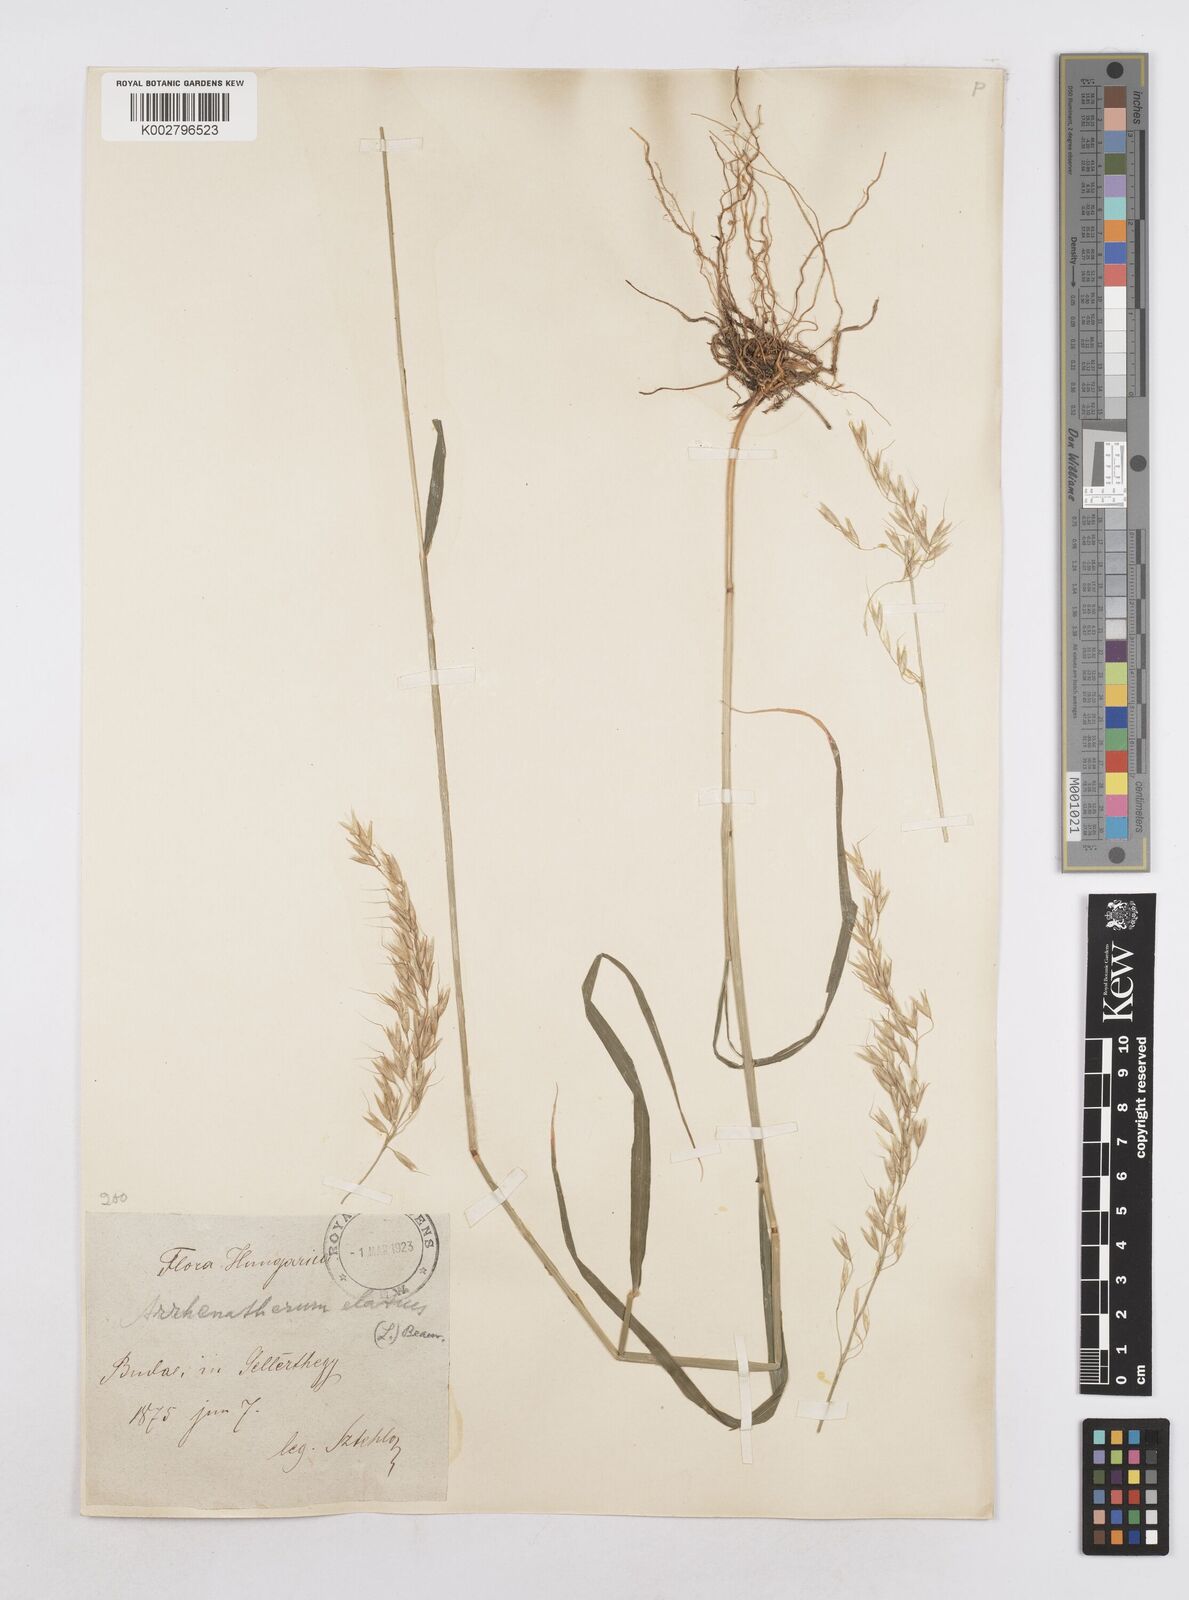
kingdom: Plantae
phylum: Tracheophyta
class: Liliopsida
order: Poales
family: Poaceae
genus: Arrhenatherum
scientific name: Arrhenatherum elatius
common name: Tall oatgrass
